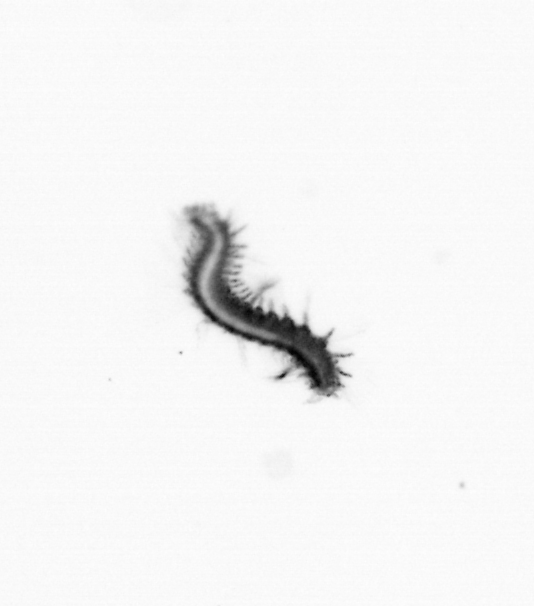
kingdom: Animalia
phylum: Annelida
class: Polychaeta
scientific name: Polychaeta
